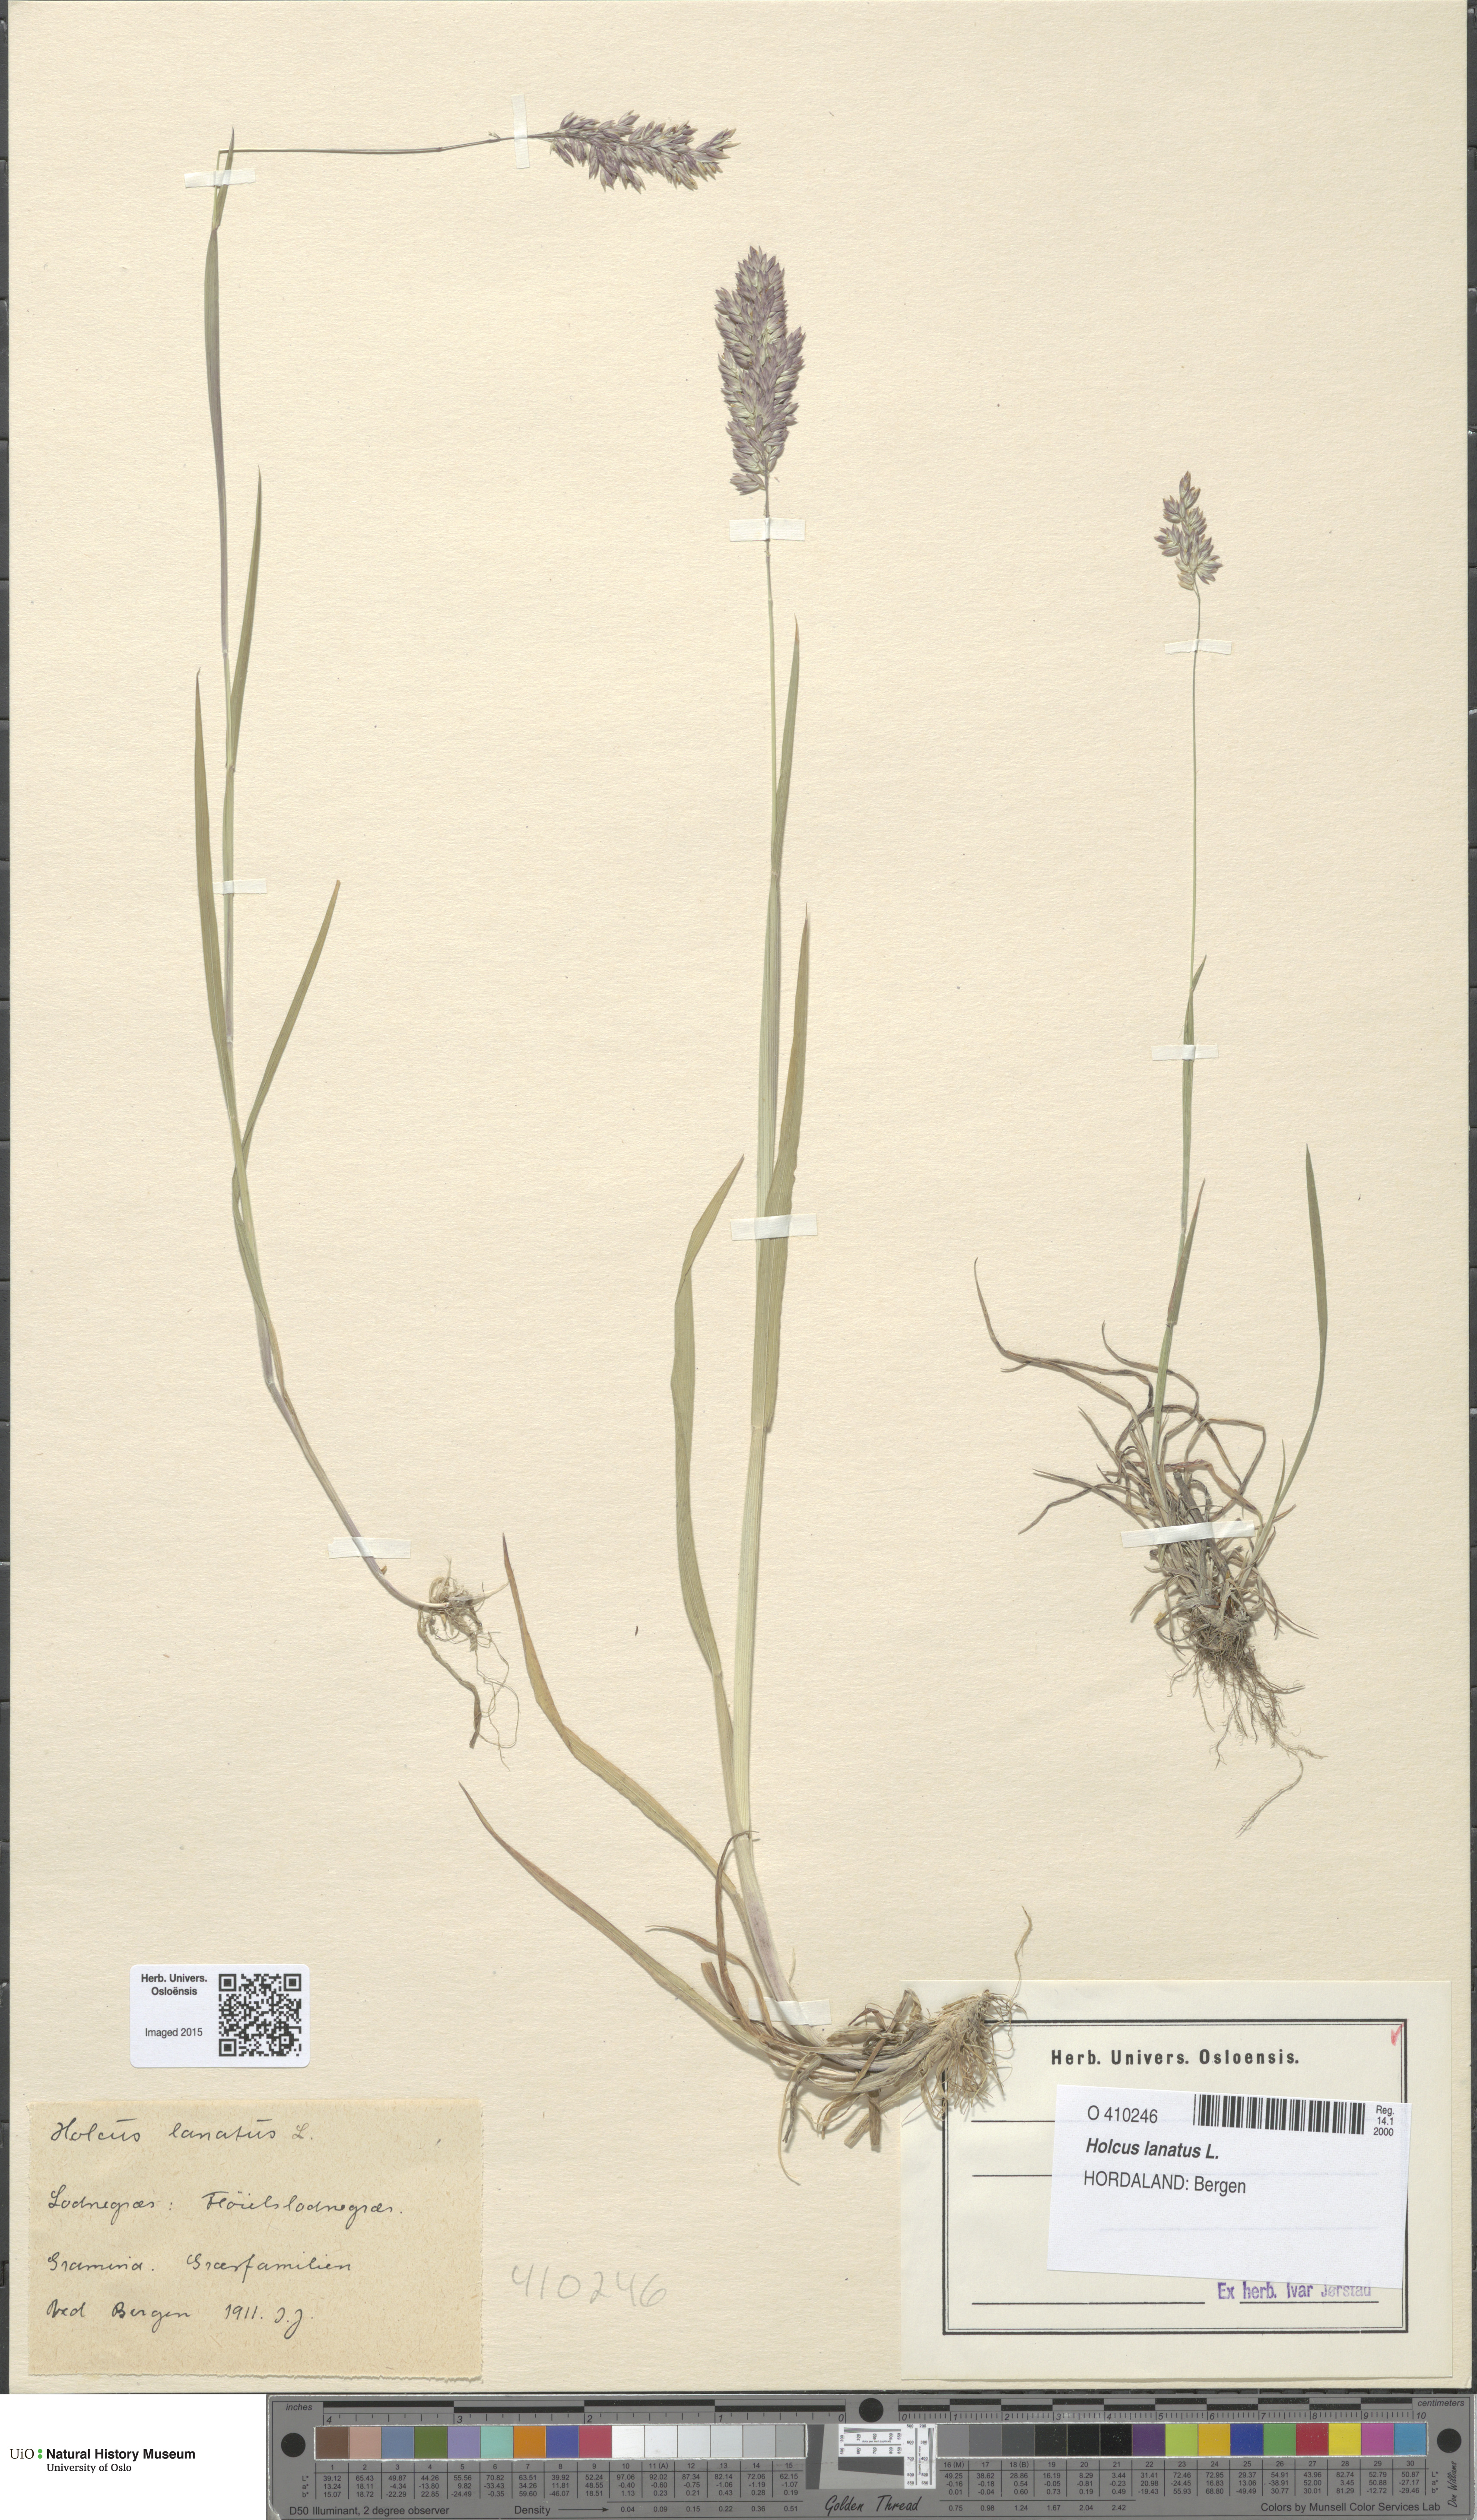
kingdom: Plantae
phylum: Tracheophyta
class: Liliopsida
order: Poales
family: Poaceae
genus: Holcus
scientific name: Holcus lanatus
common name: Yorkshire-fog
